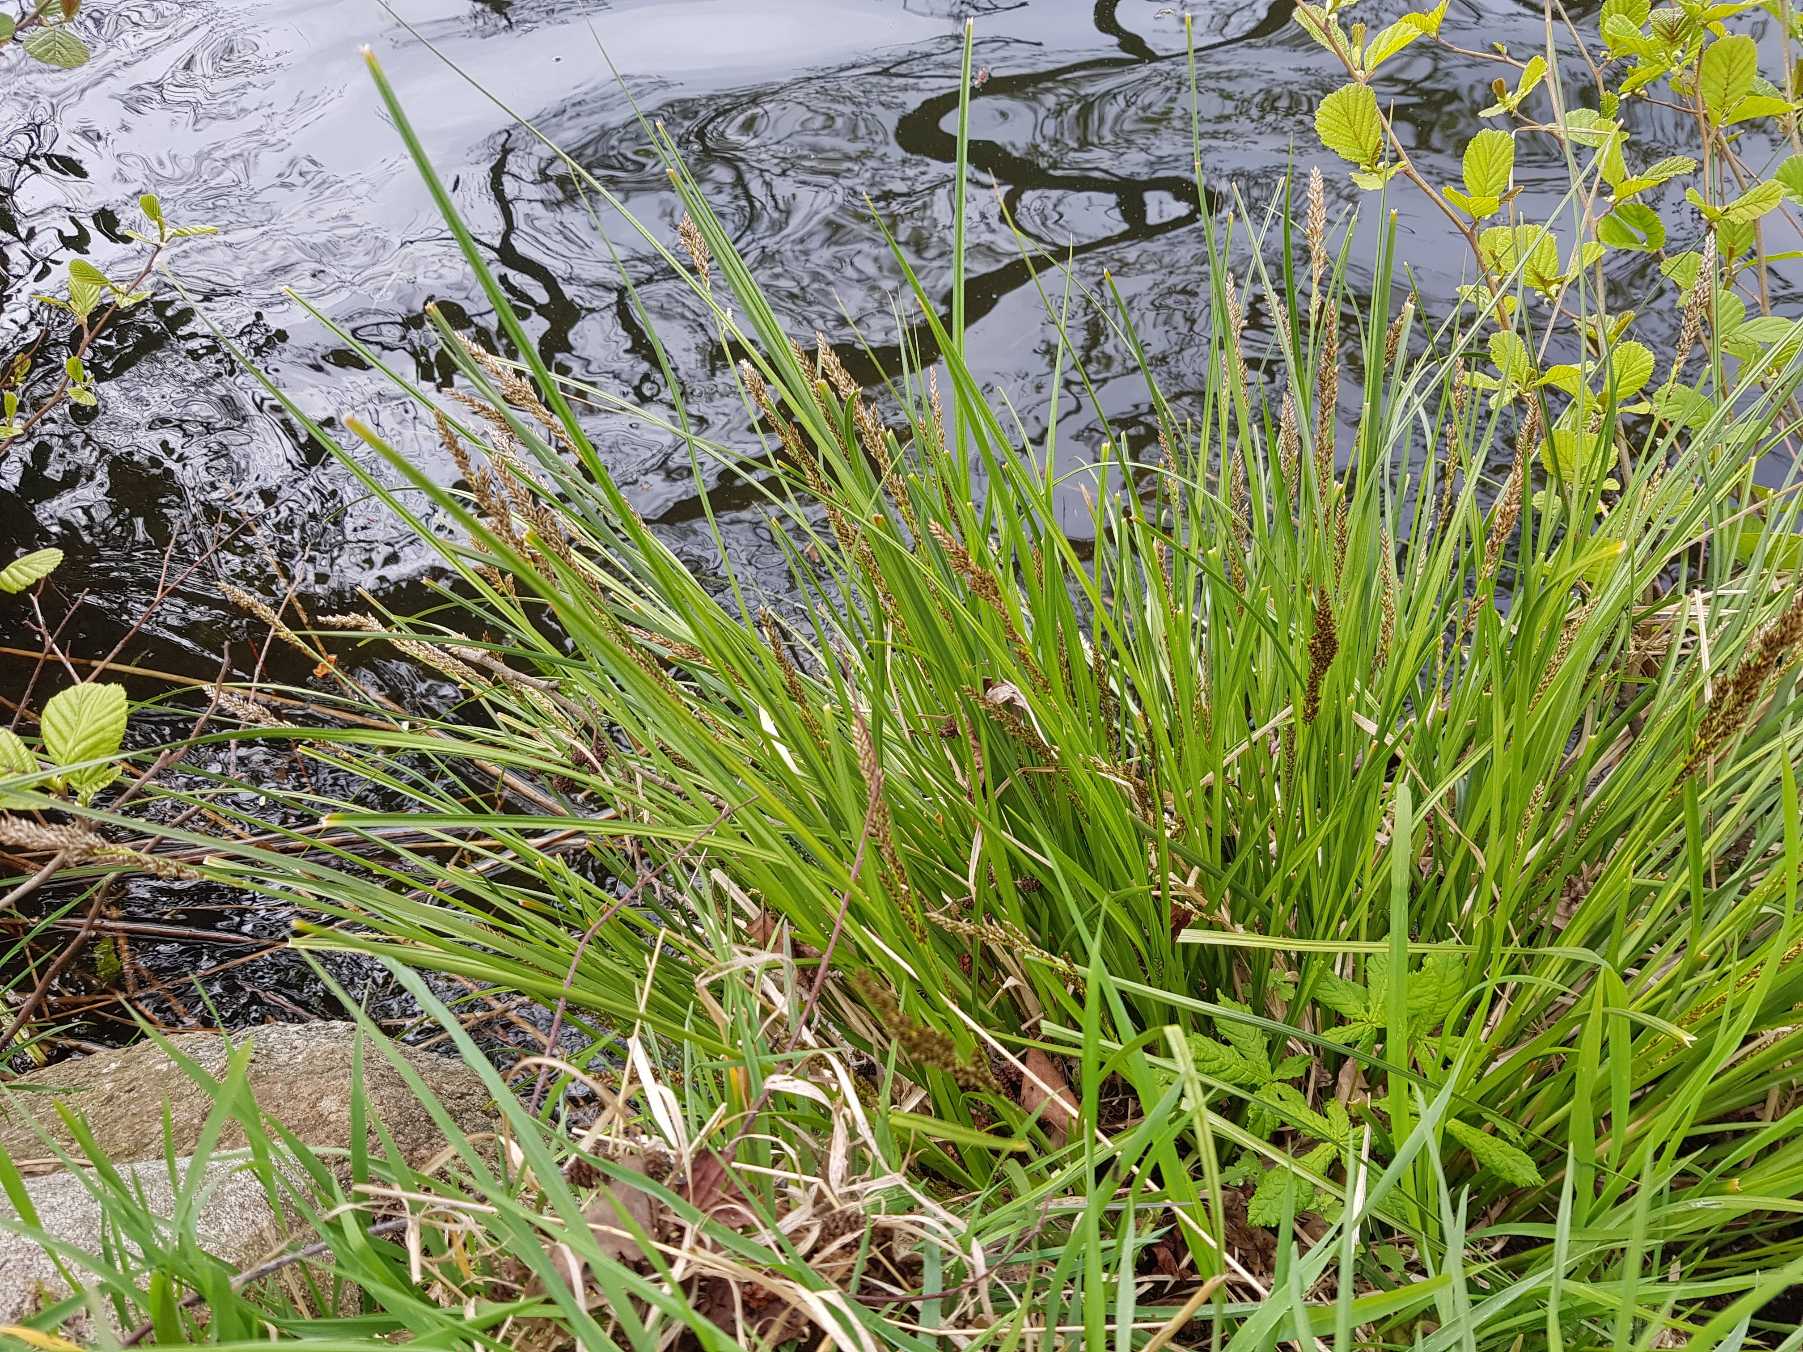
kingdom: Plantae
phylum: Tracheophyta
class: Liliopsida
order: Poales
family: Cyperaceae
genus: Carex
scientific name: Carex paniculata
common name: Top-star
